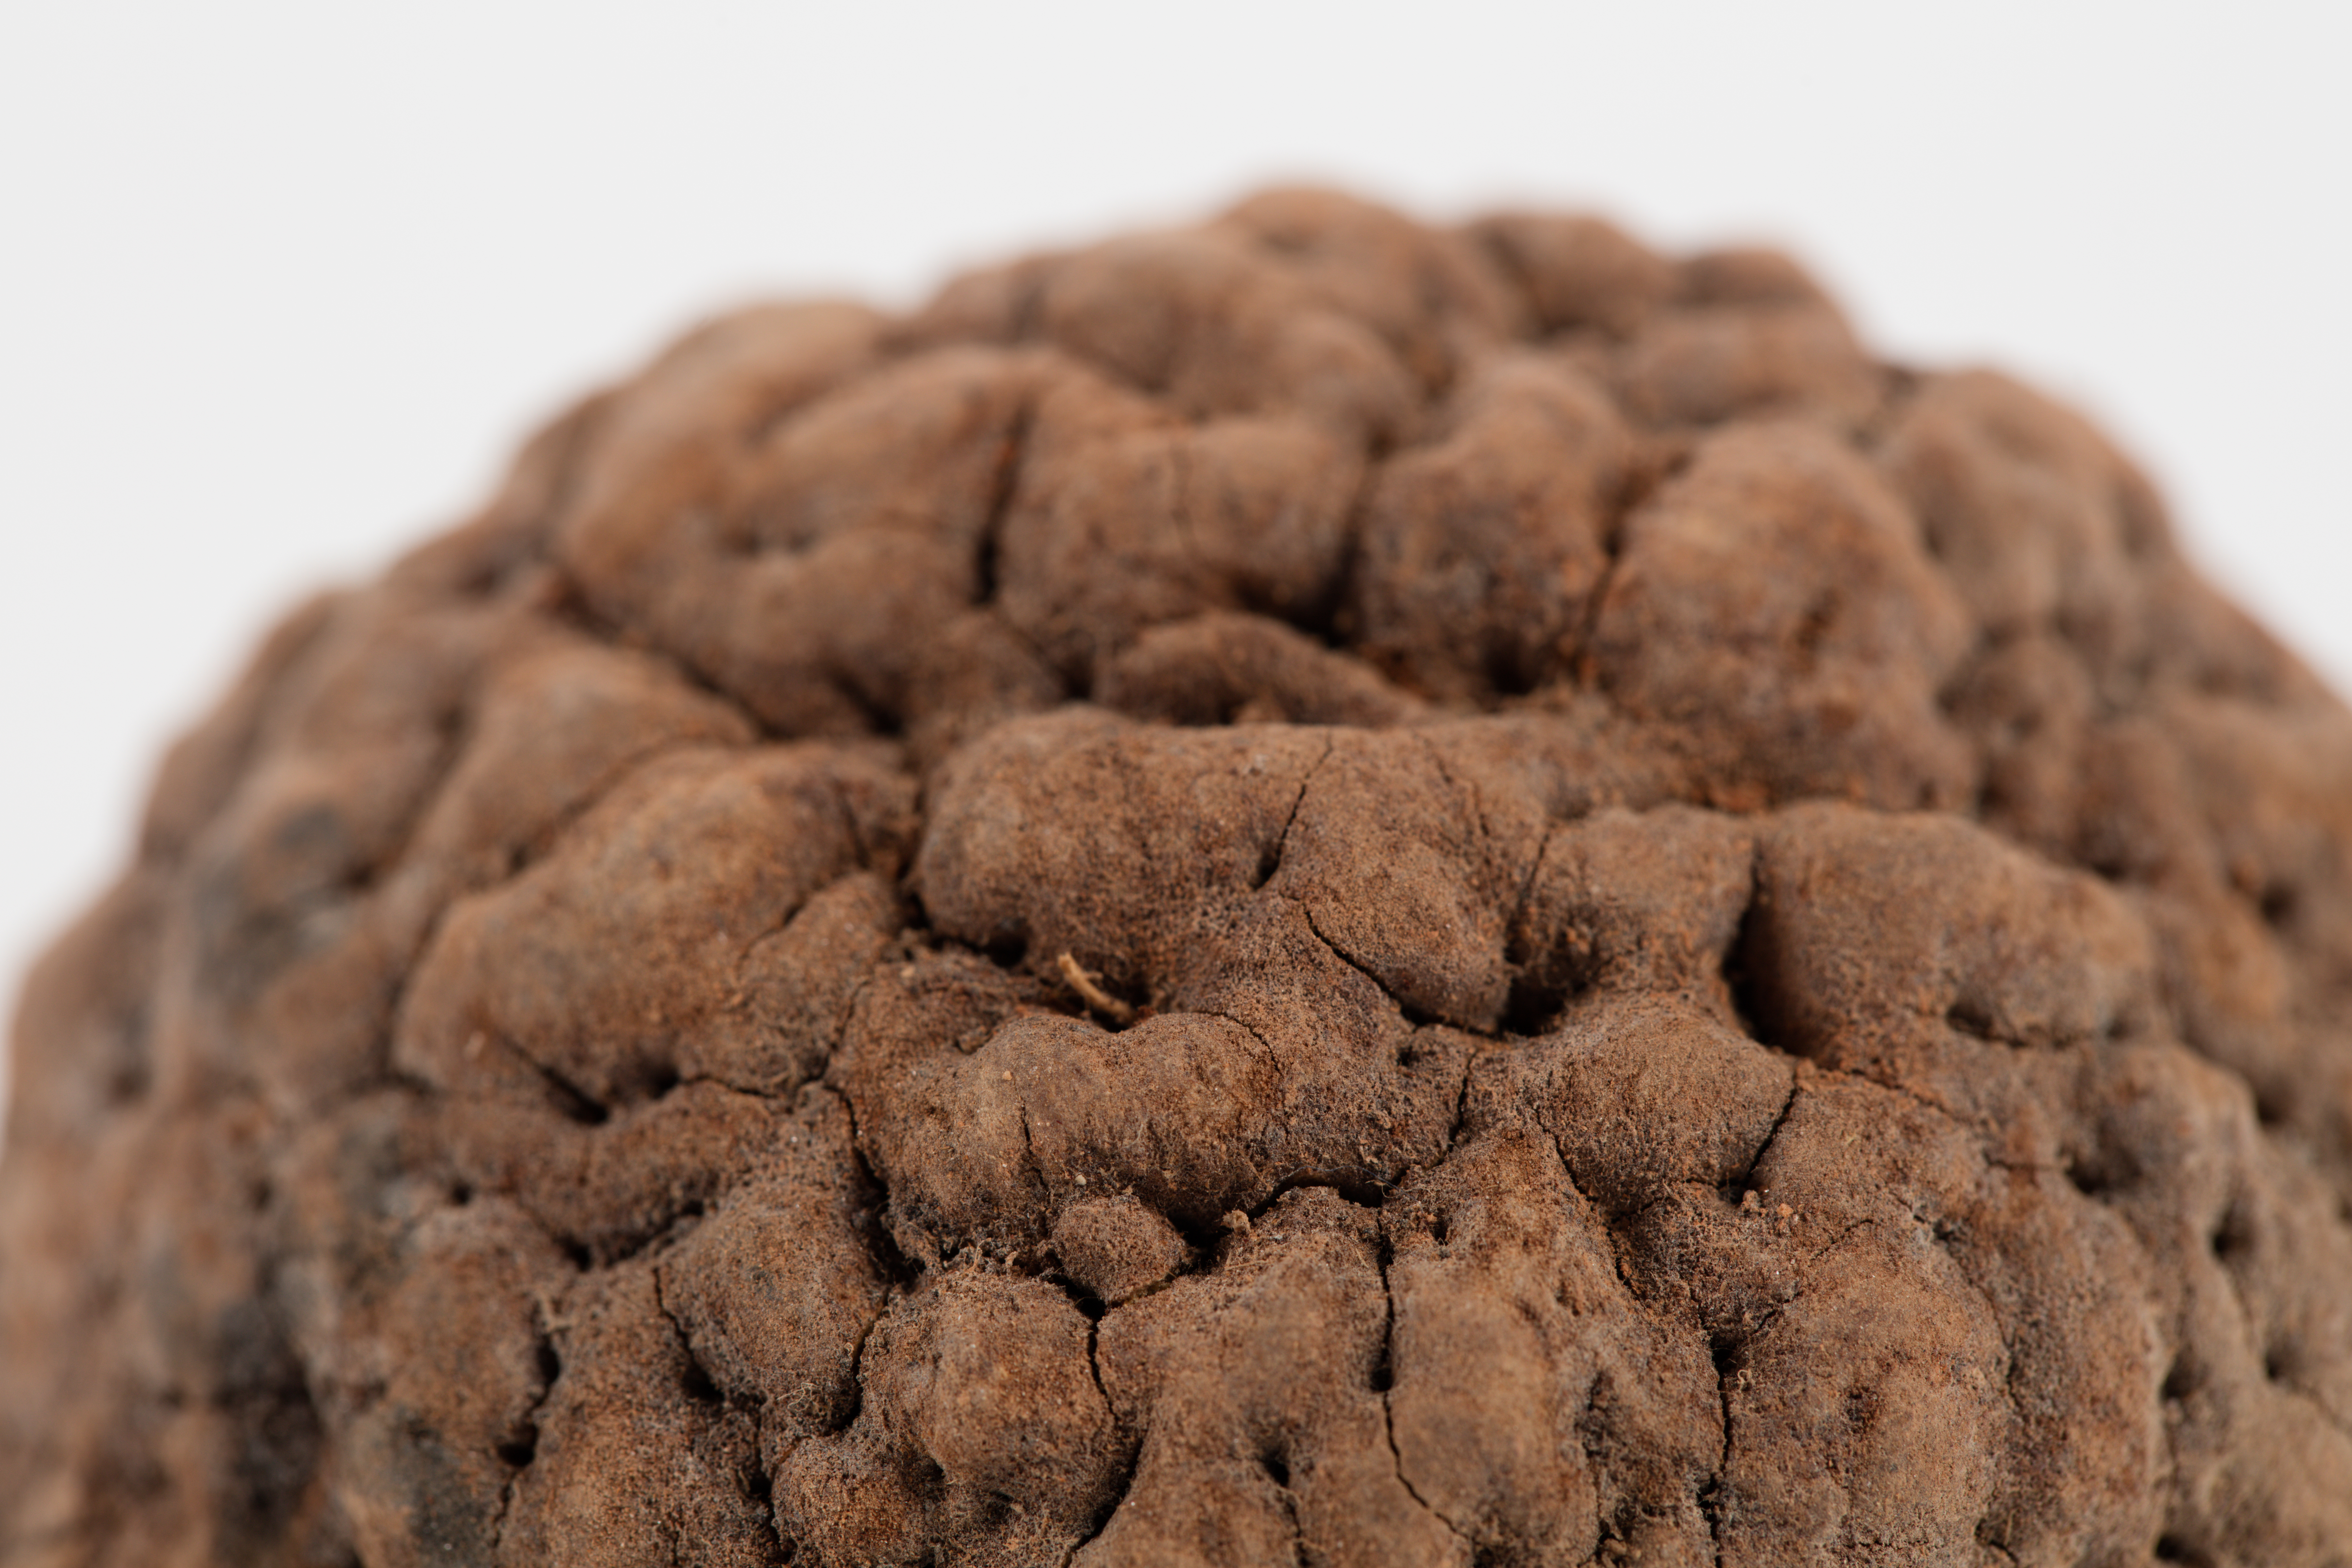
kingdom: Plantae
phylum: Tracheophyta
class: Magnoliopsida
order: Oxalidales
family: Elaeocarpaceae
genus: Elaeocarpus
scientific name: Elaeocarpus
